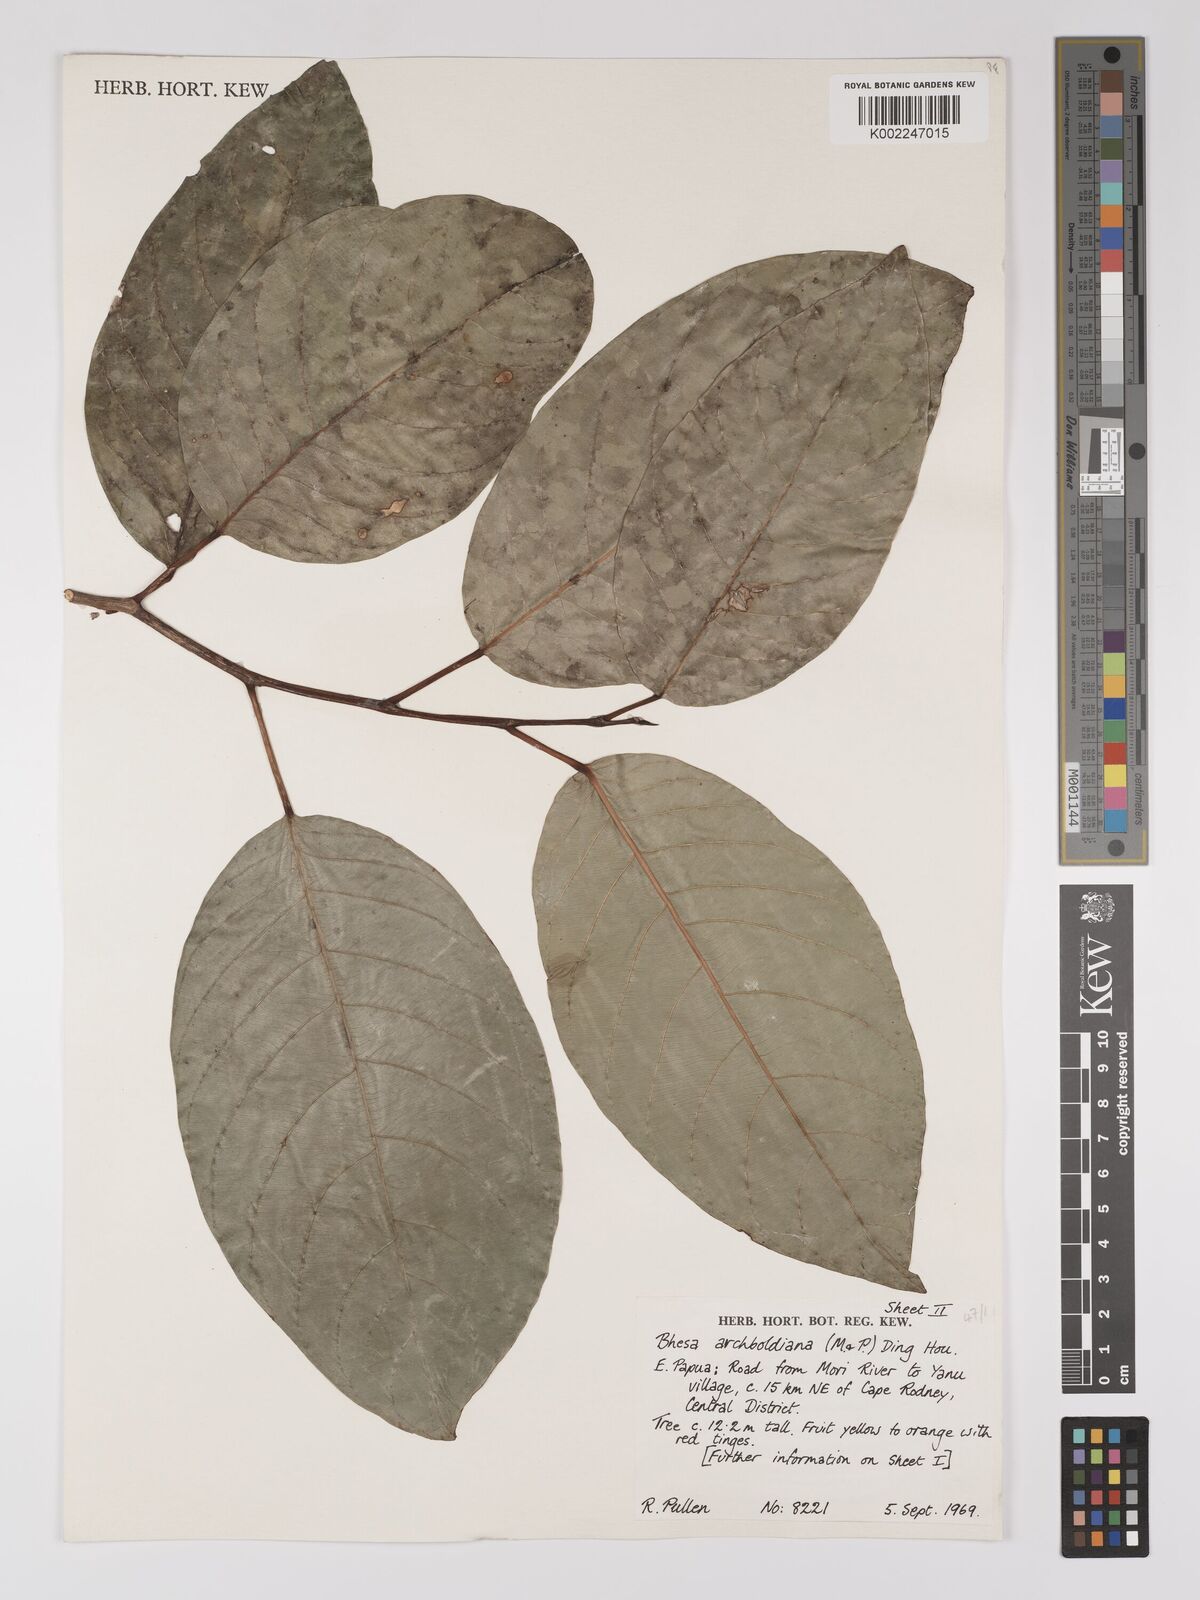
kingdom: Plantae
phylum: Tracheophyta
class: Magnoliopsida
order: Malpighiales
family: Centroplacaceae
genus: Bhesa
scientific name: Bhesa archboldiana
